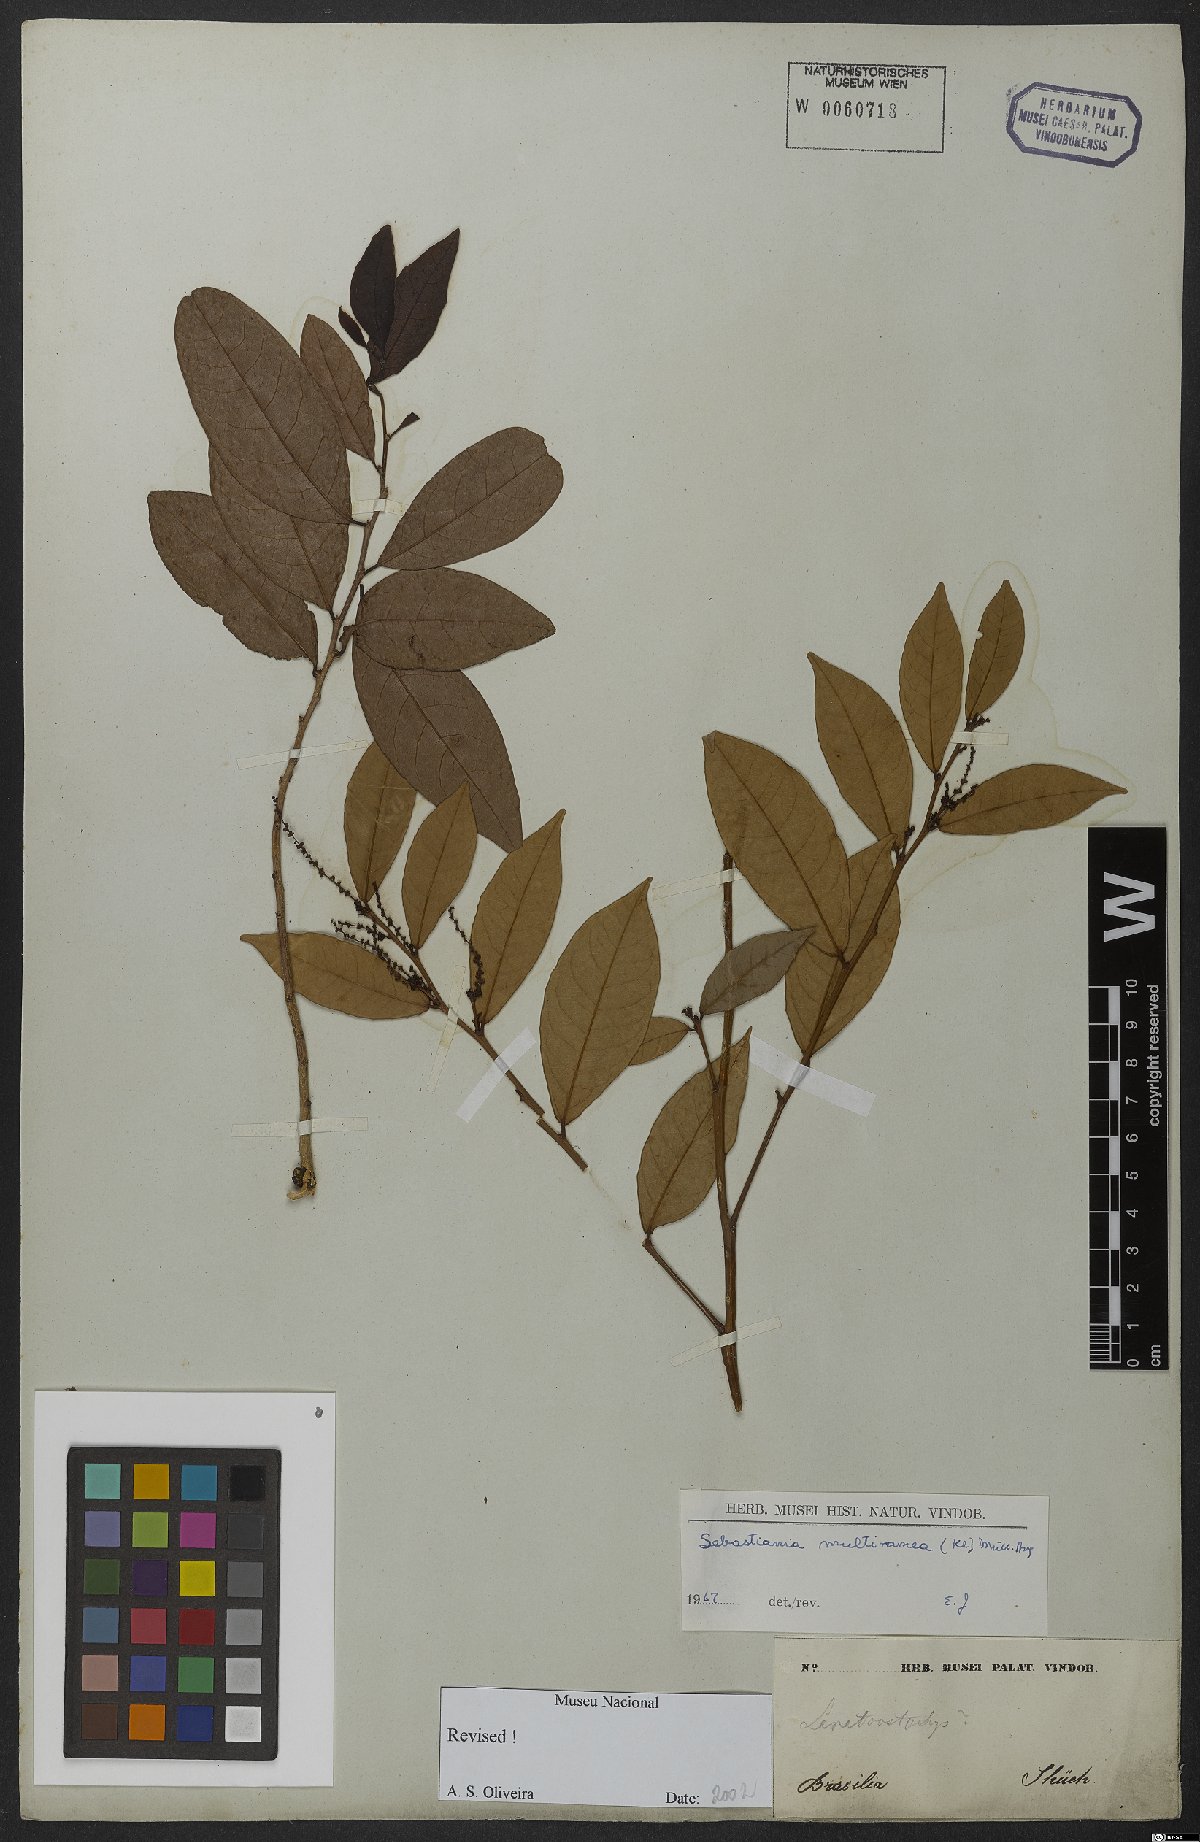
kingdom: Plantae
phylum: Tracheophyta
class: Magnoliopsida
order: Malpighiales
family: Euphorbiaceae
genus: Gymnanthes
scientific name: Gymnanthes glabrata
